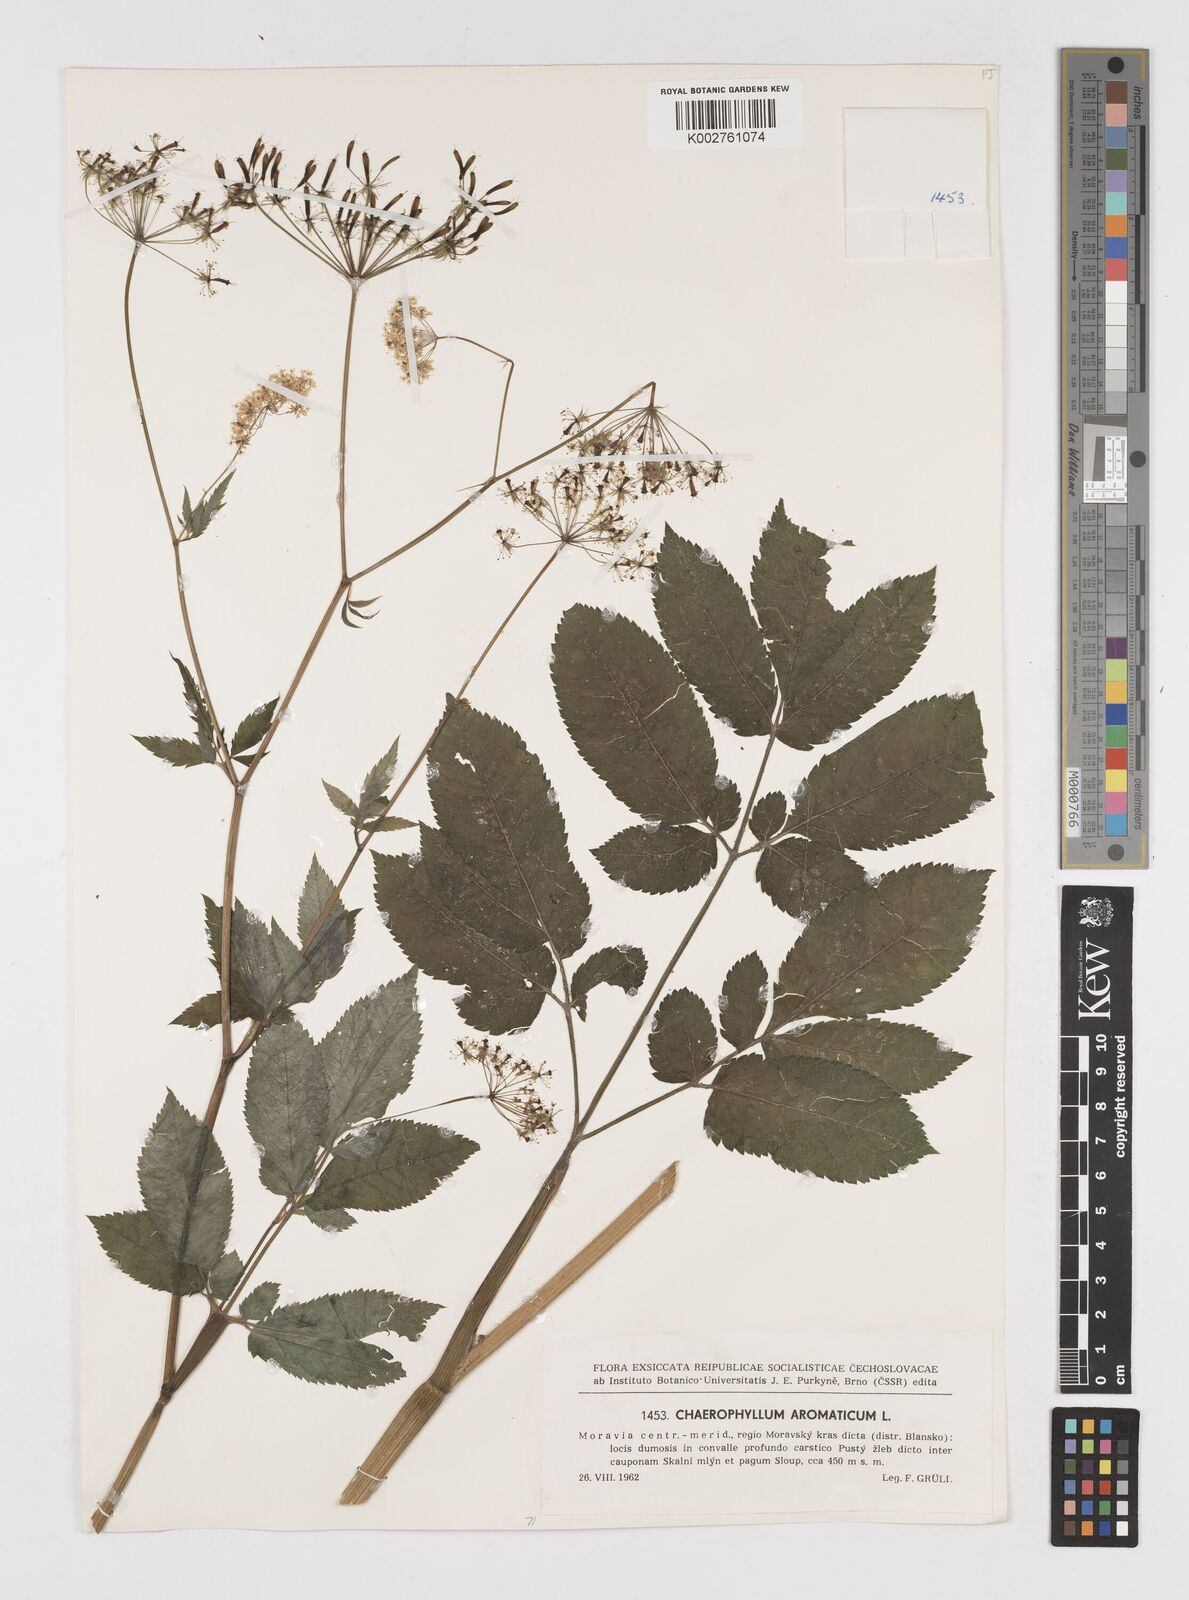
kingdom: Plantae
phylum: Tracheophyta
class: Magnoliopsida
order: Apiales
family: Apiaceae
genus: Chaerophyllum
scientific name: Chaerophyllum aromaticum
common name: Broadleaf chervil
